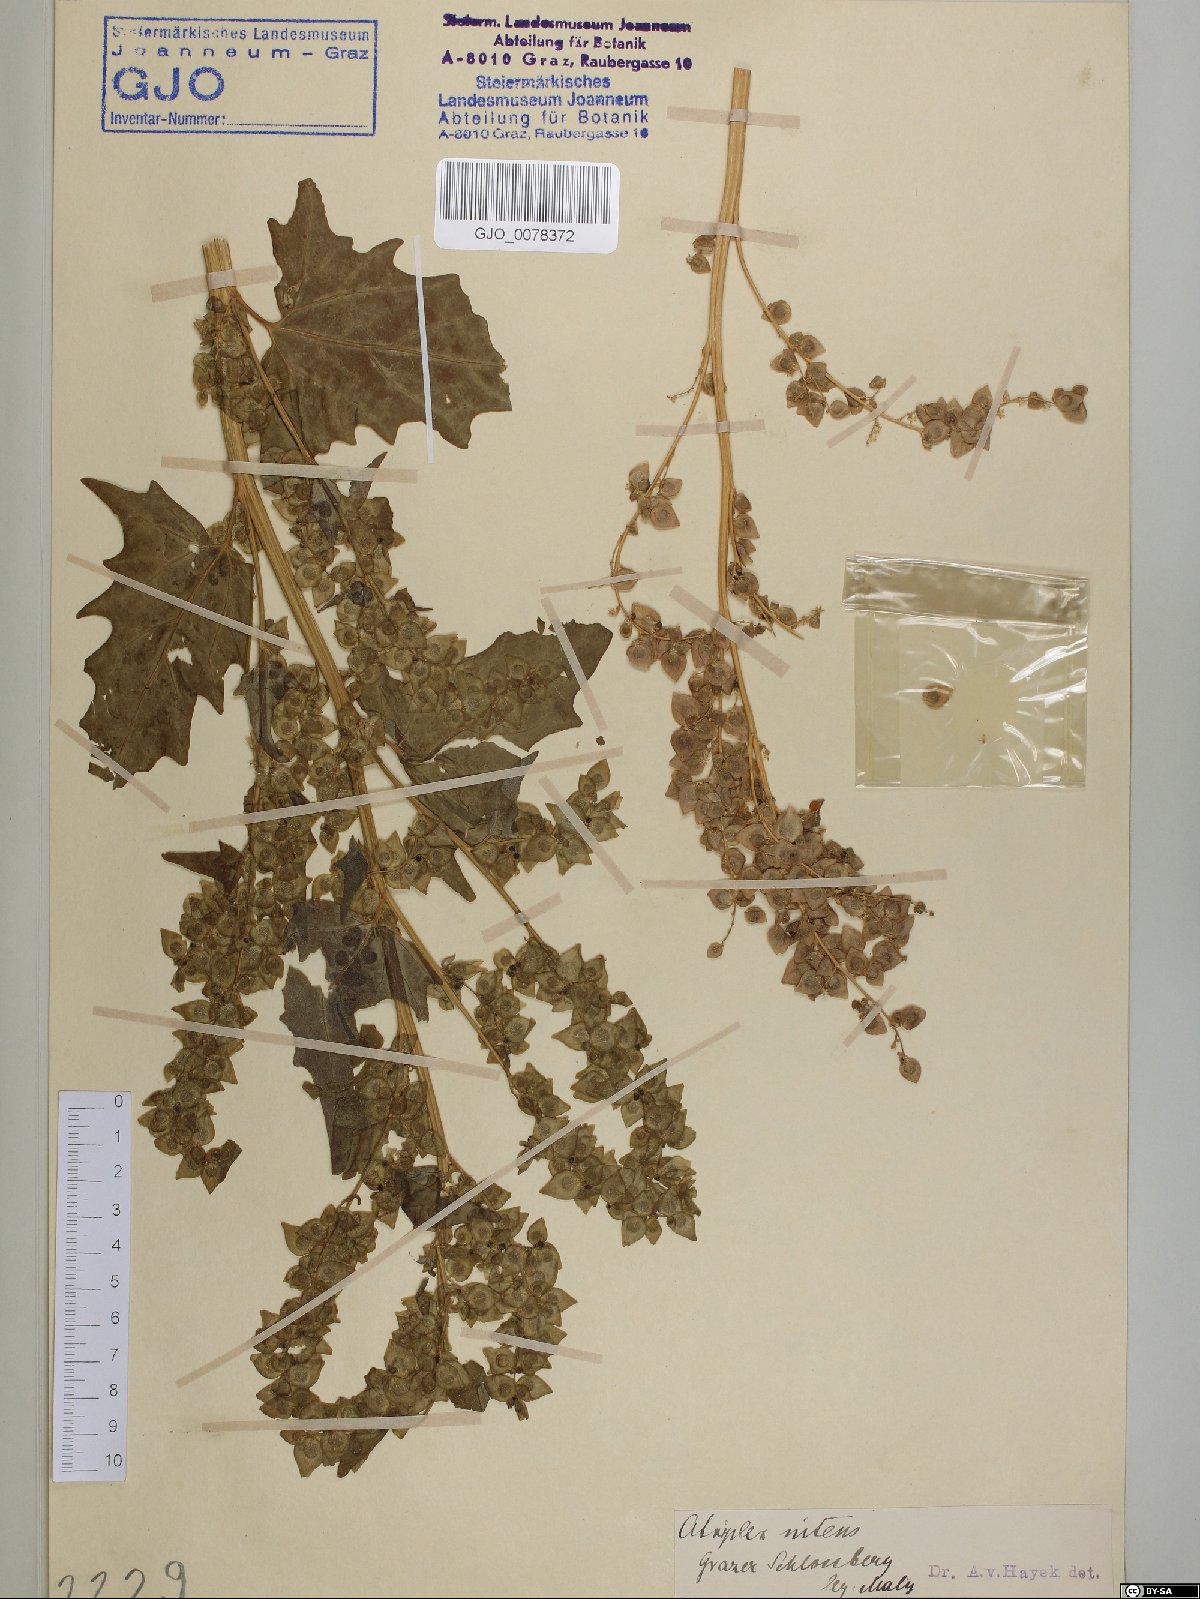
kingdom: Plantae
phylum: Tracheophyta
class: Magnoliopsida
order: Caryophyllales
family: Amaranthaceae
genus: Atriplex
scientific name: Atriplex sagittata
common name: Purple orache
